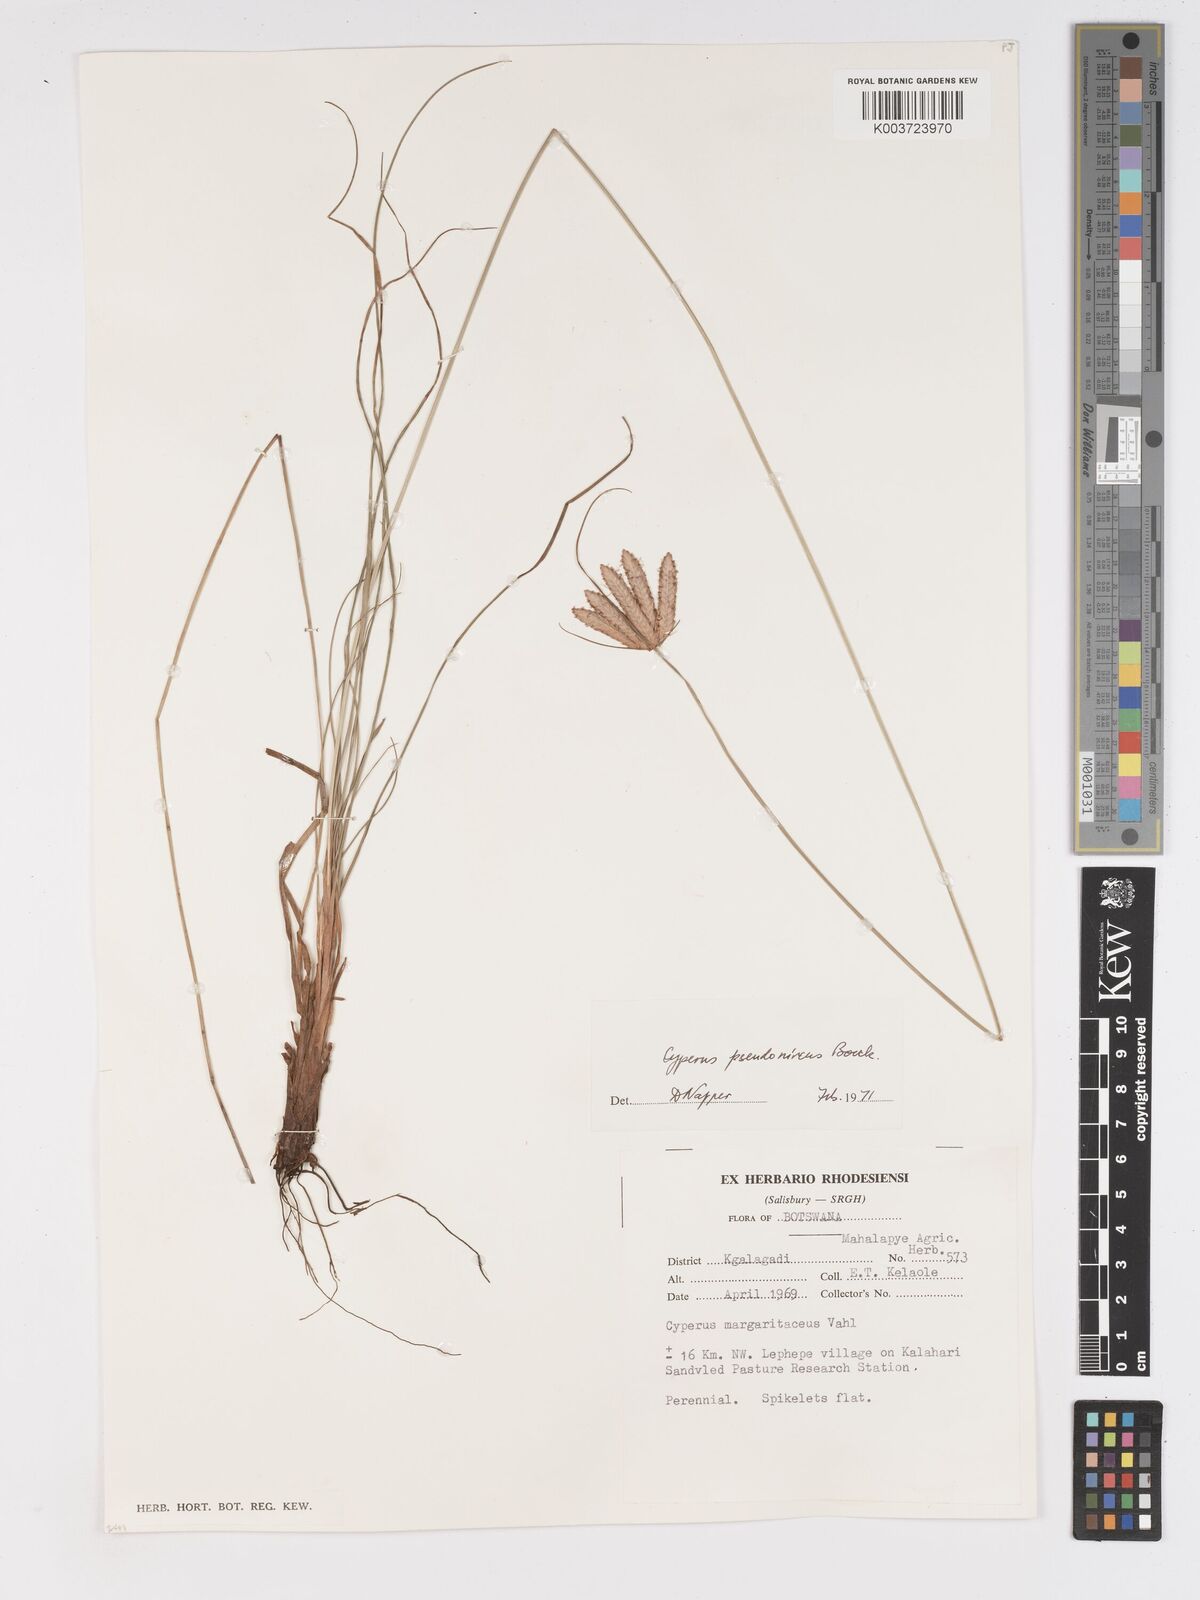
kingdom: Plantae
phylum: Tracheophyta
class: Liliopsida
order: Poales
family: Cyperaceae
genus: Cyperus
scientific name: Cyperus margaritaceus
